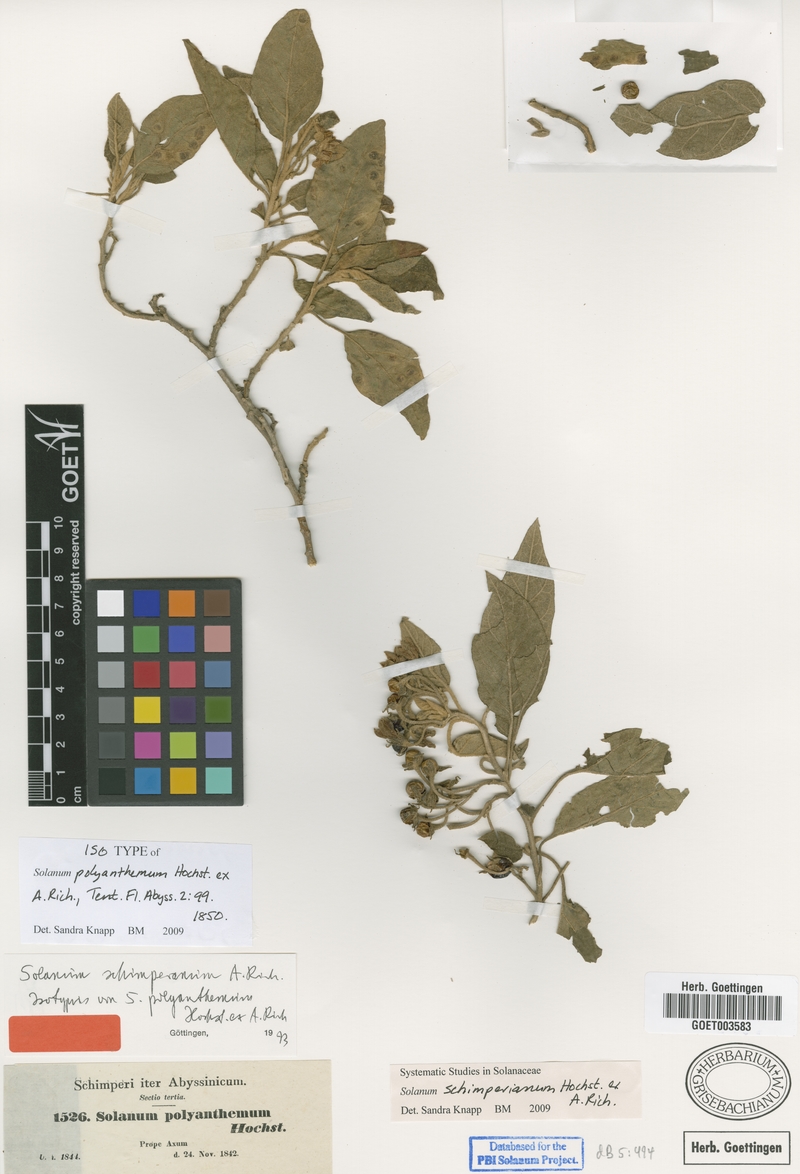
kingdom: Plantae
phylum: Tracheophyta
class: Magnoliopsida
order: Solanales
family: Solanaceae
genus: Solanum
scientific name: Solanum schimperianum
